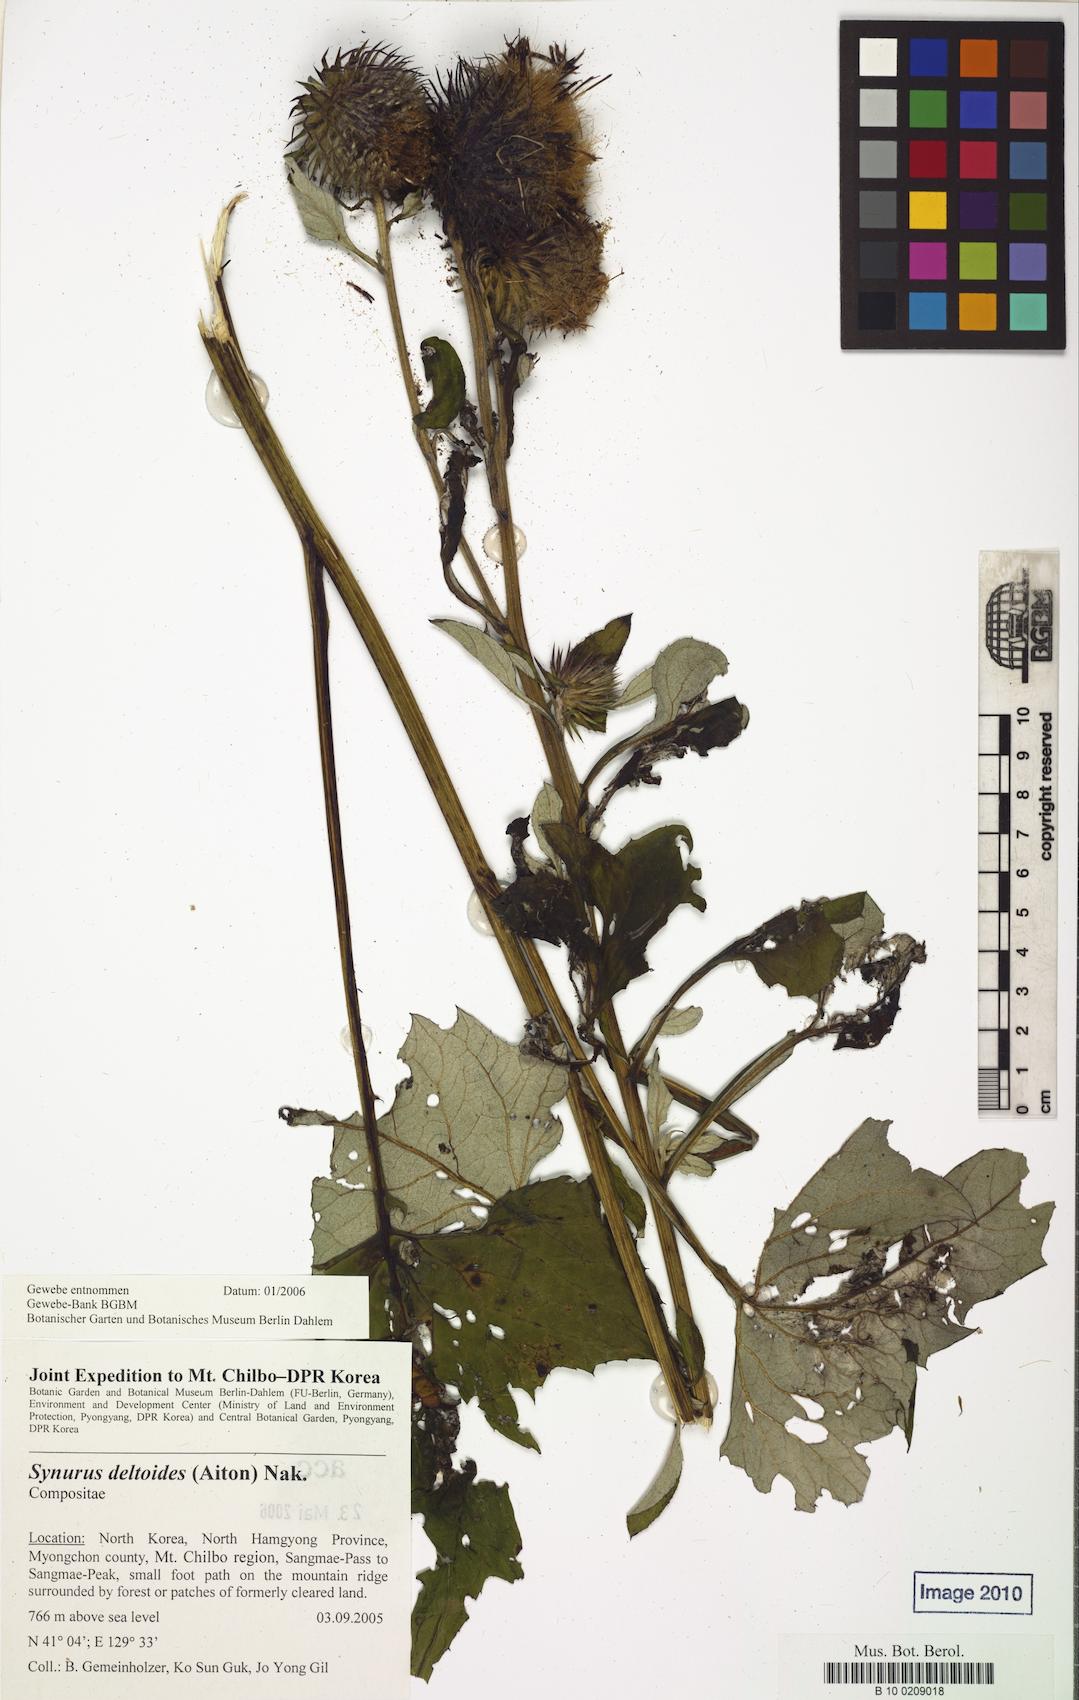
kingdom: Plantae
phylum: Tracheophyta
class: Magnoliopsida
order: Asterales
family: Asteraceae
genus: Synurus
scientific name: Synurus deltoides
